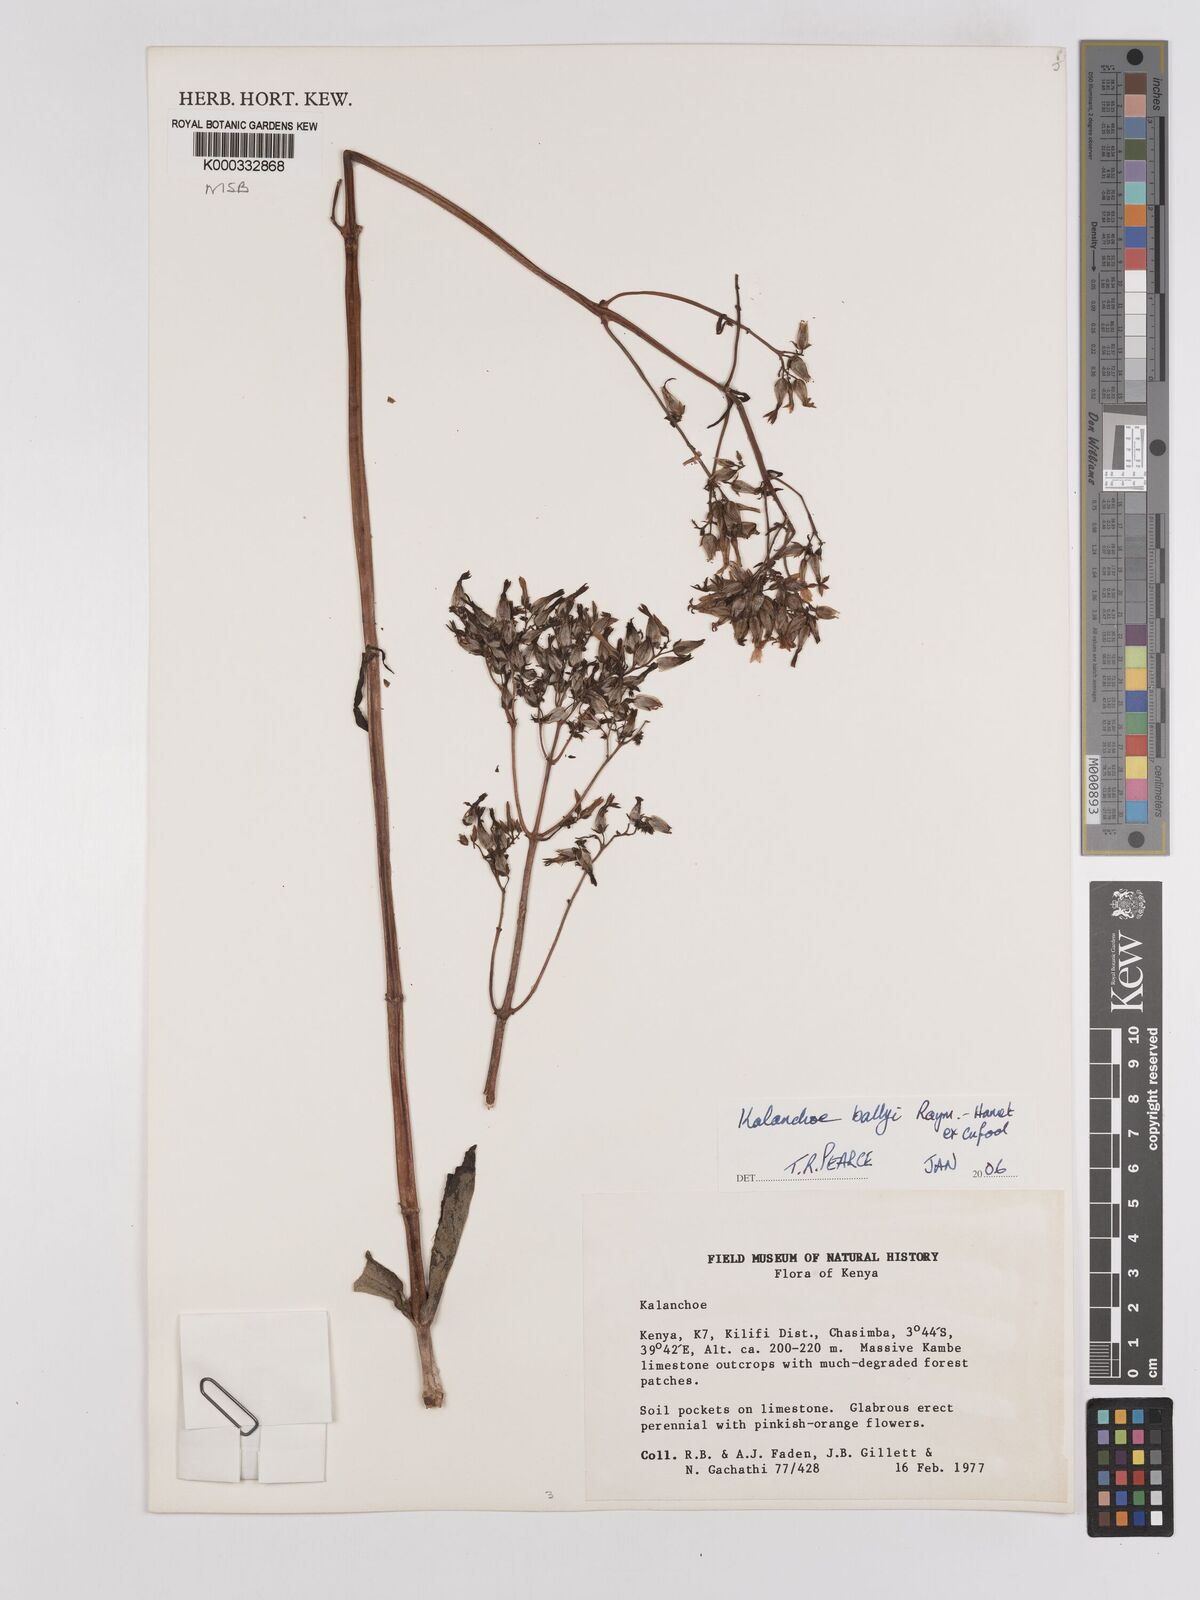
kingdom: Plantae
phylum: Tracheophyta
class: Magnoliopsida
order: Saxifragales
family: Crassulaceae
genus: Kalanchoe
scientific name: Kalanchoe ballyi
